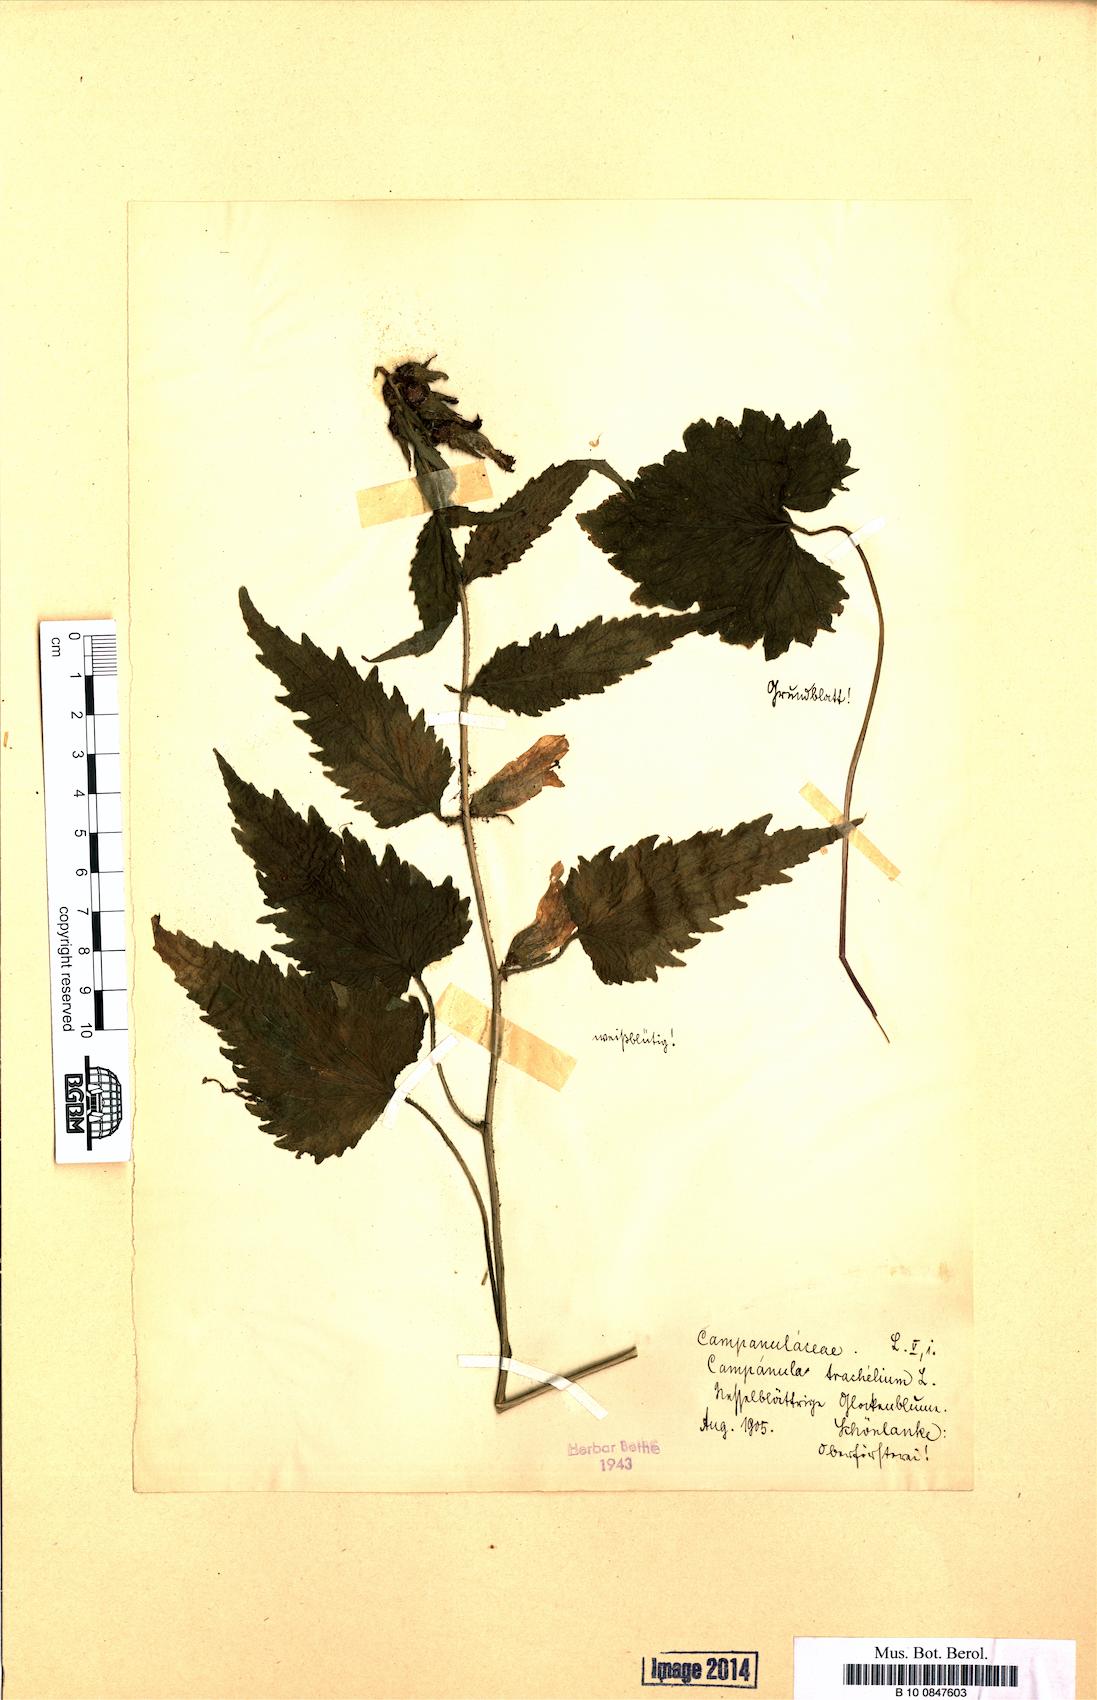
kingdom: Plantae
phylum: Tracheophyta
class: Magnoliopsida
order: Asterales
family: Campanulaceae
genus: Campanula
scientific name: Campanula trachelium
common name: Nettle-leaved bellflower
